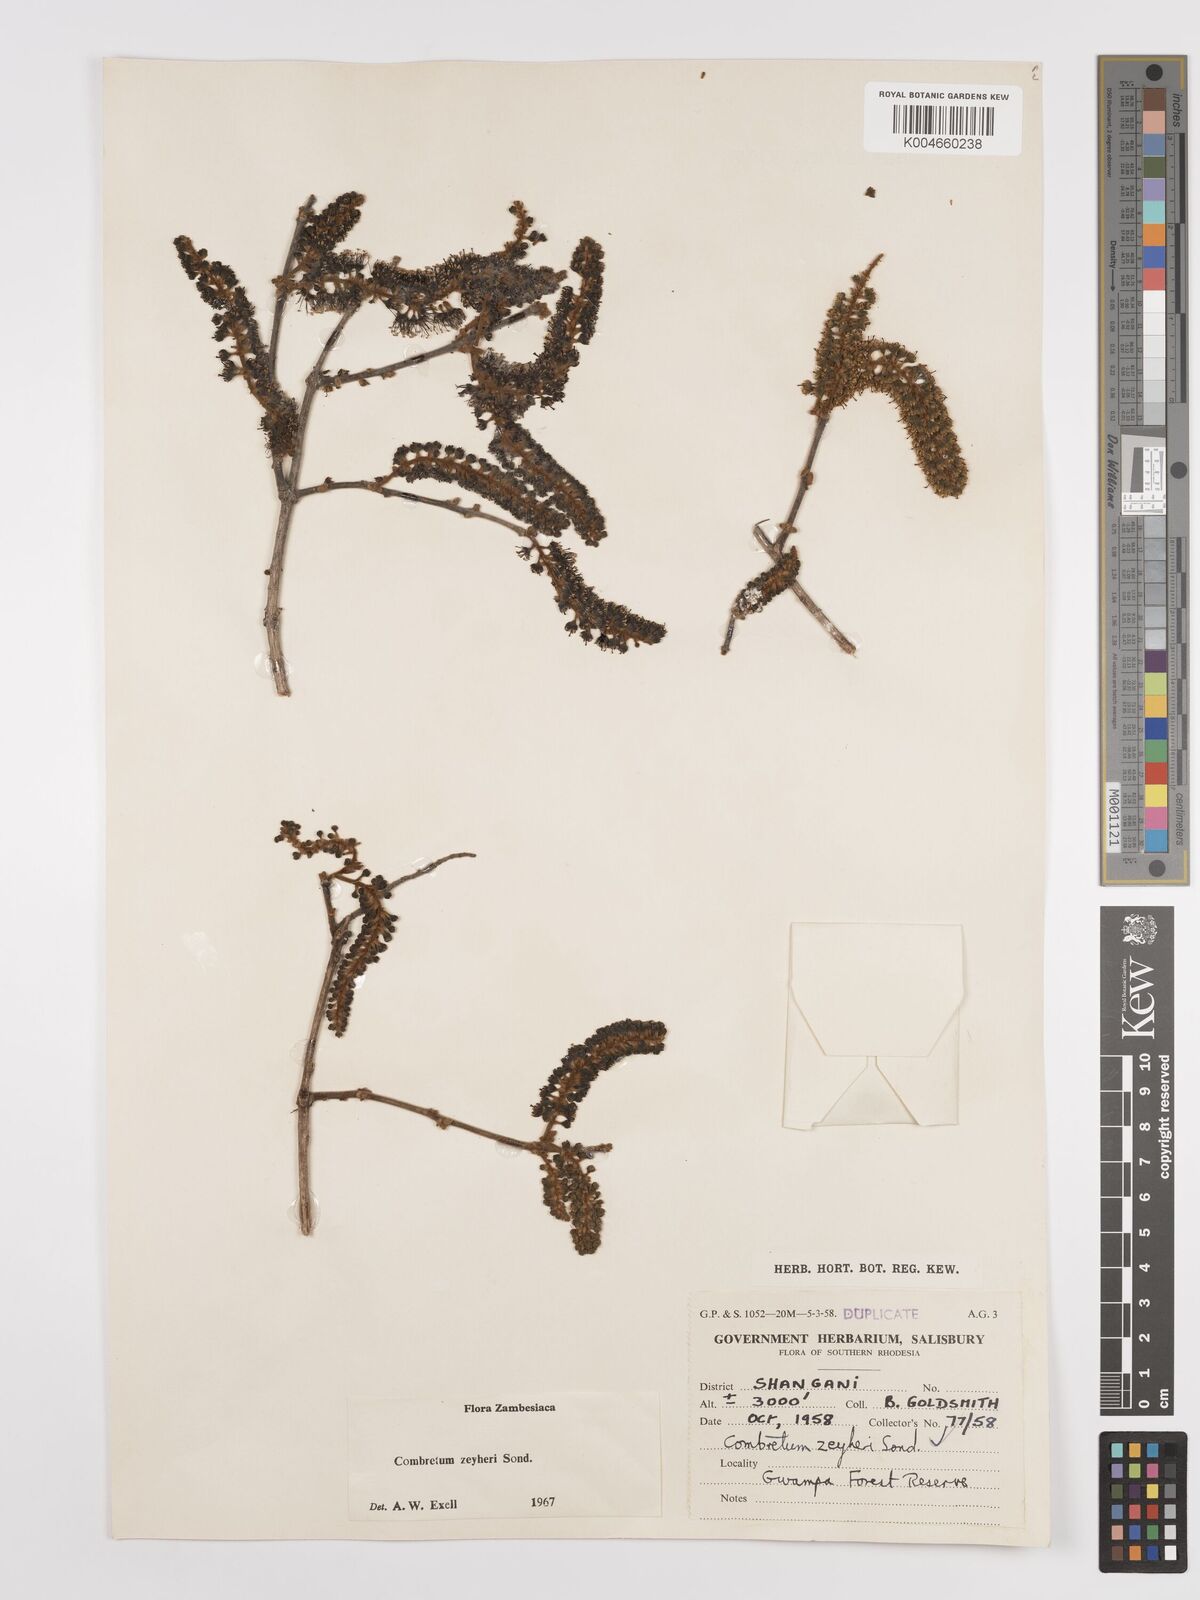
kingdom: Plantae
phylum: Tracheophyta
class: Magnoliopsida
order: Myrtales
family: Combretaceae
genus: Combretum
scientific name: Combretum zeyheri
